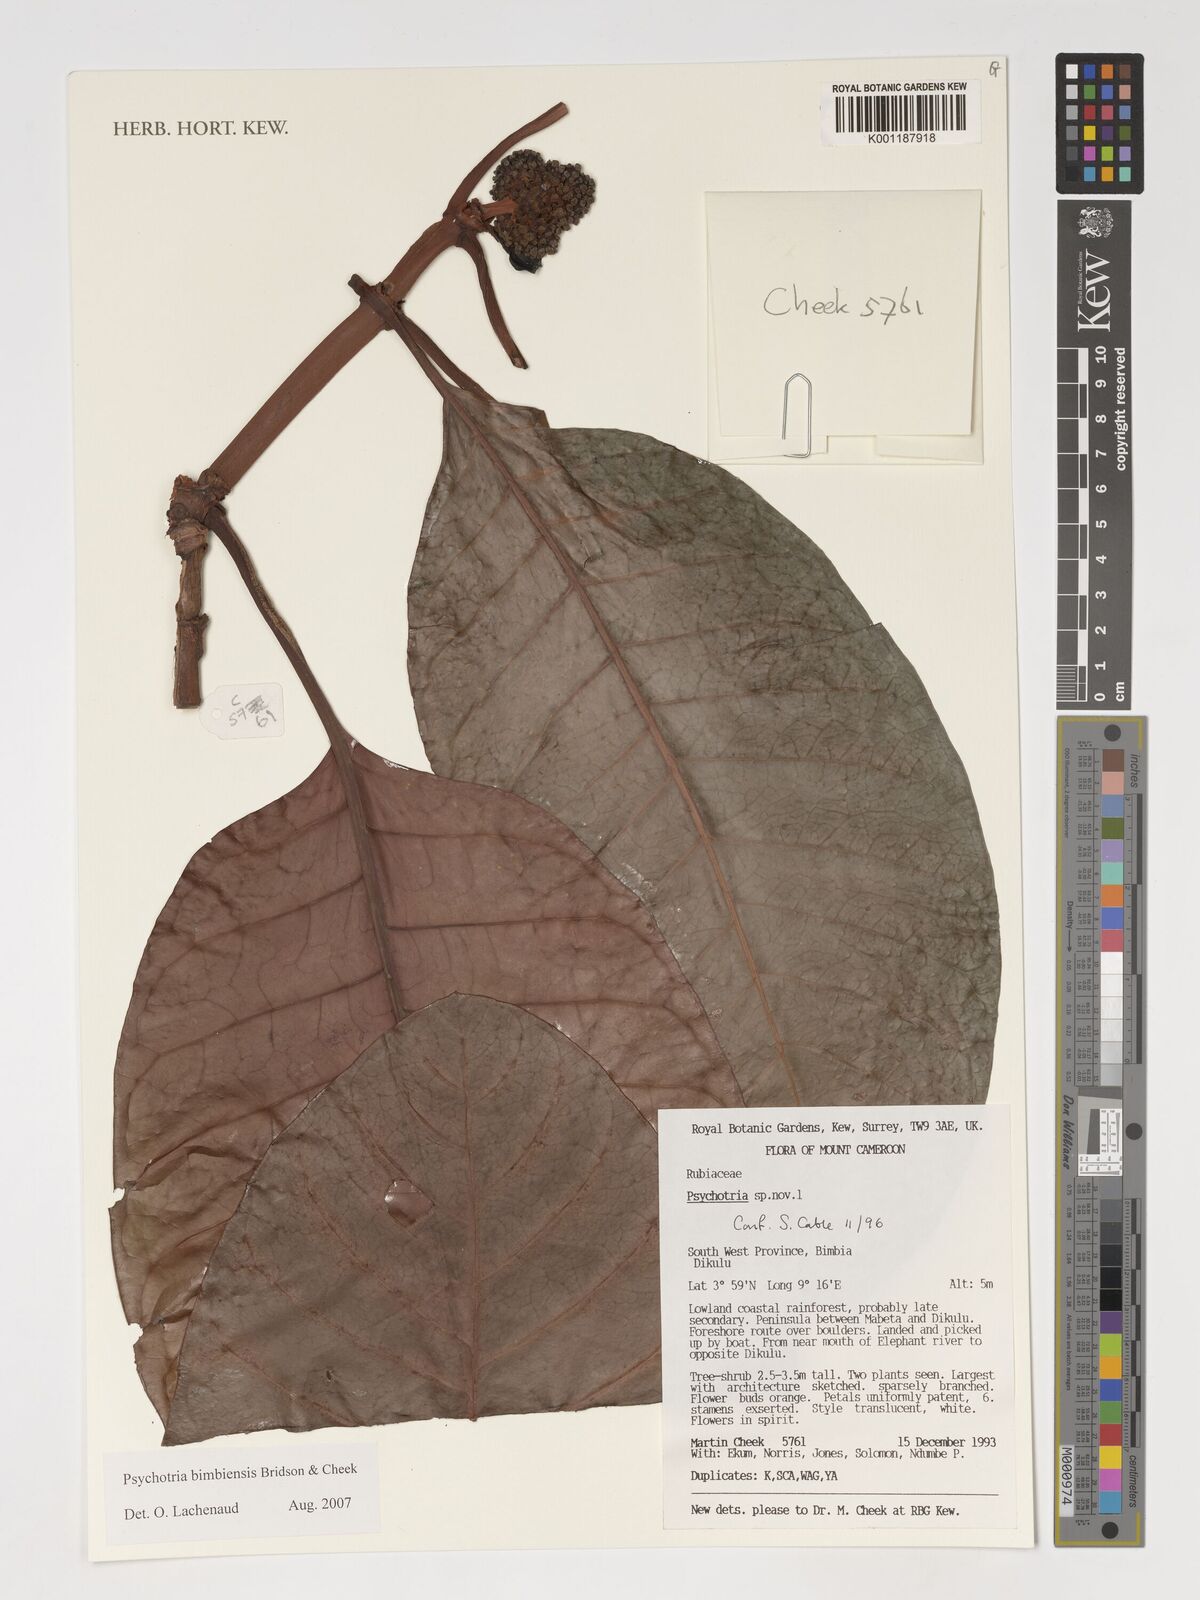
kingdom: Plantae
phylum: Tracheophyta
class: Magnoliopsida
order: Gentianales
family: Rubiaceae
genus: Psychotria
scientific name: Psychotria bimbiensis
